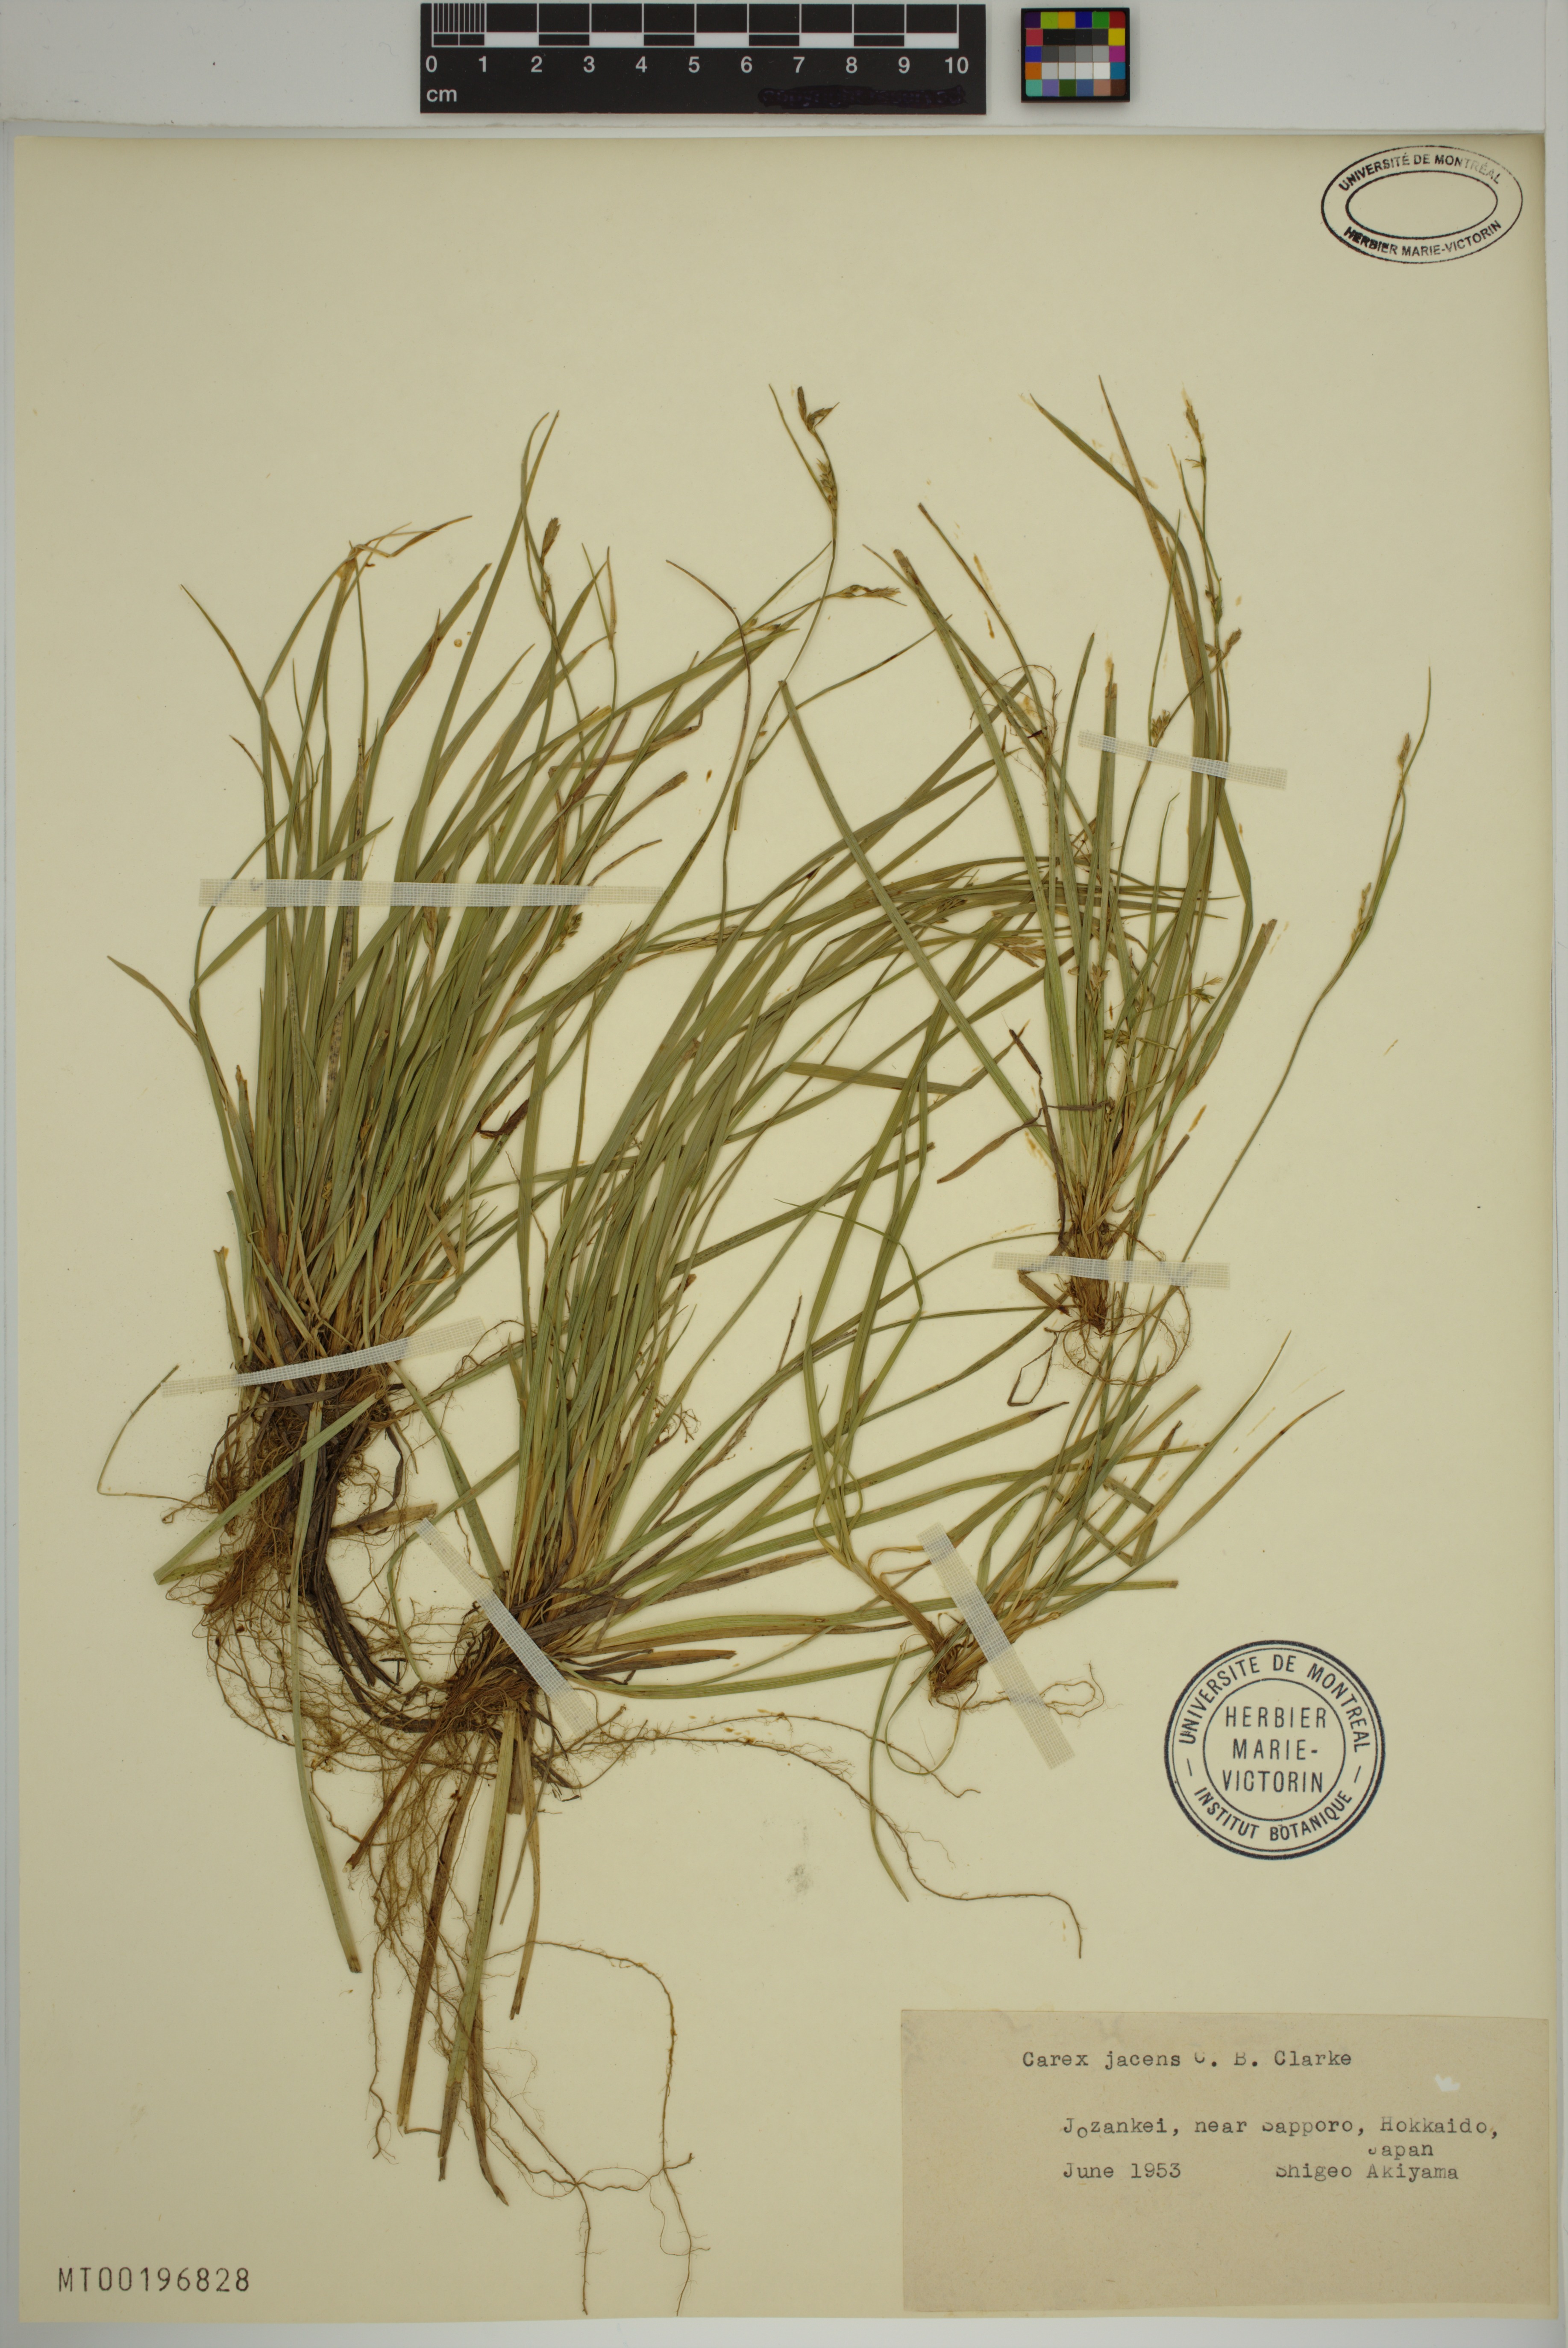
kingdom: Plantae
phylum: Tracheophyta
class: Liliopsida
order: Poales
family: Cyperaceae
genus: Carex
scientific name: Carex jacens
